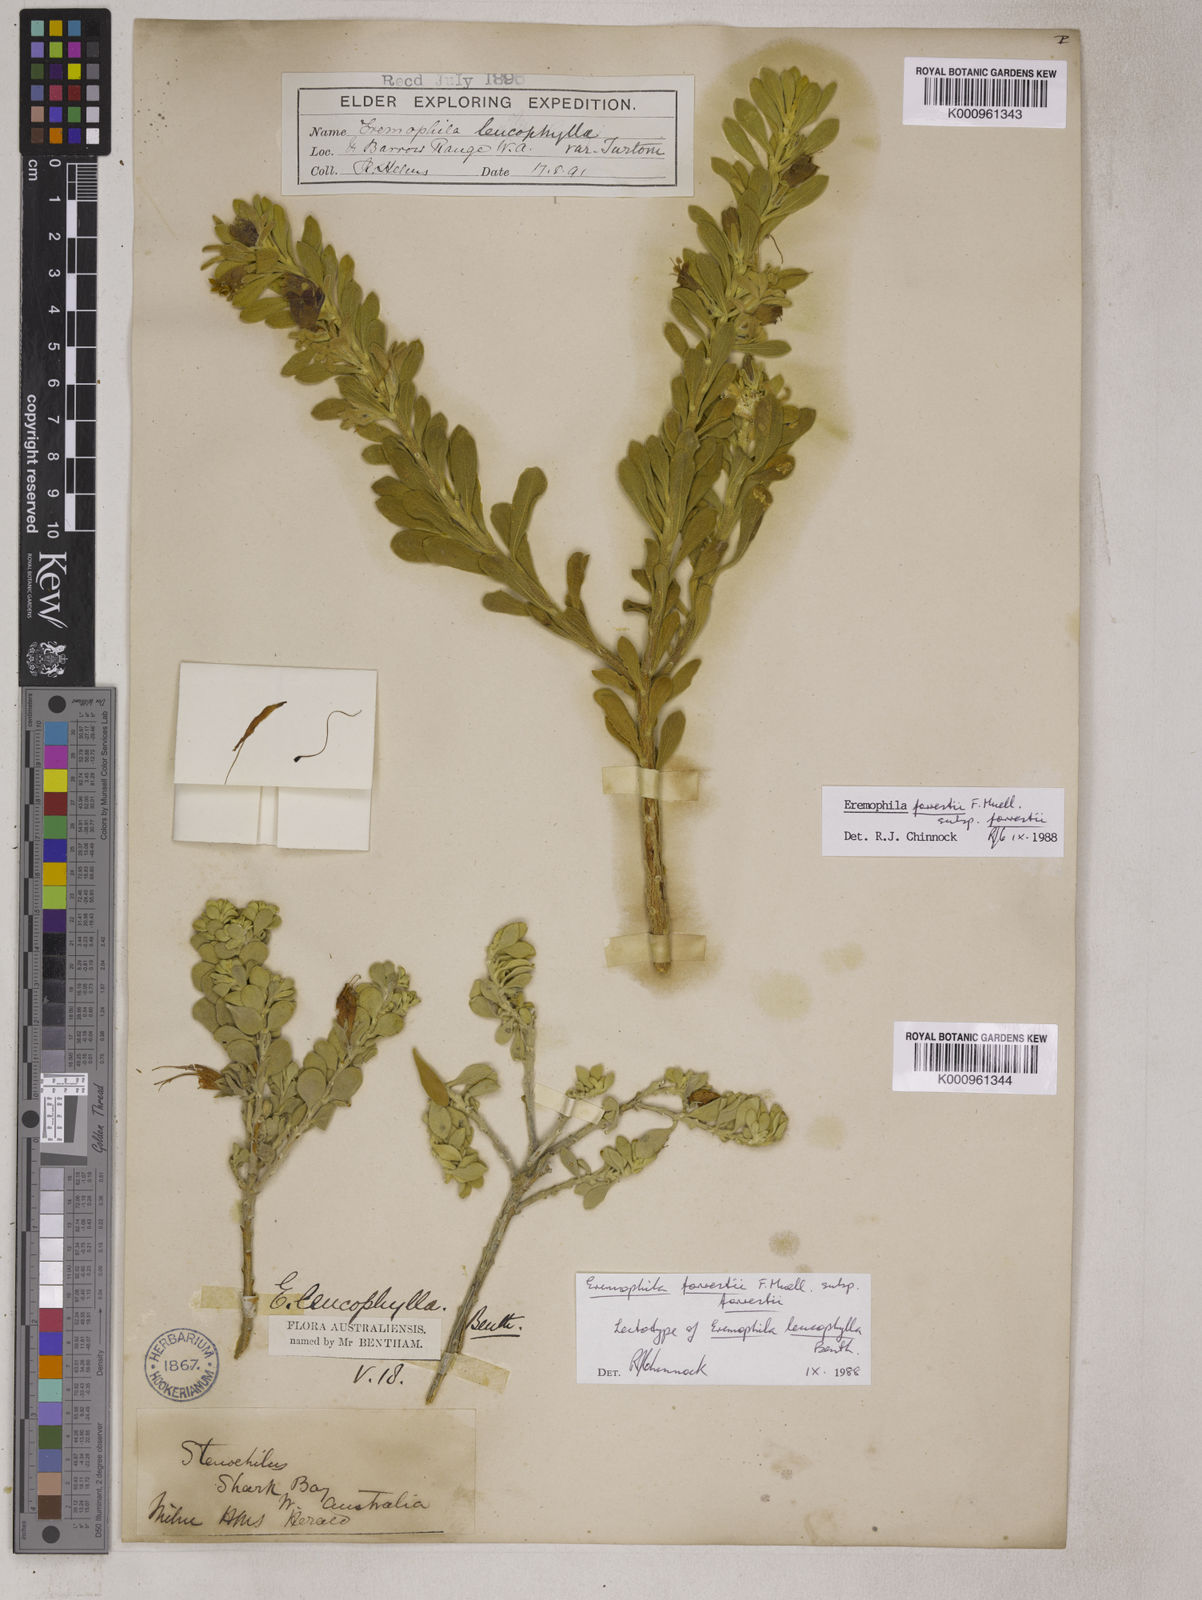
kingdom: Plantae
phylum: Tracheophyta
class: Magnoliopsida
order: Lamiales
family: Scrophulariaceae
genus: Eremophila
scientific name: Eremophila forrestii
